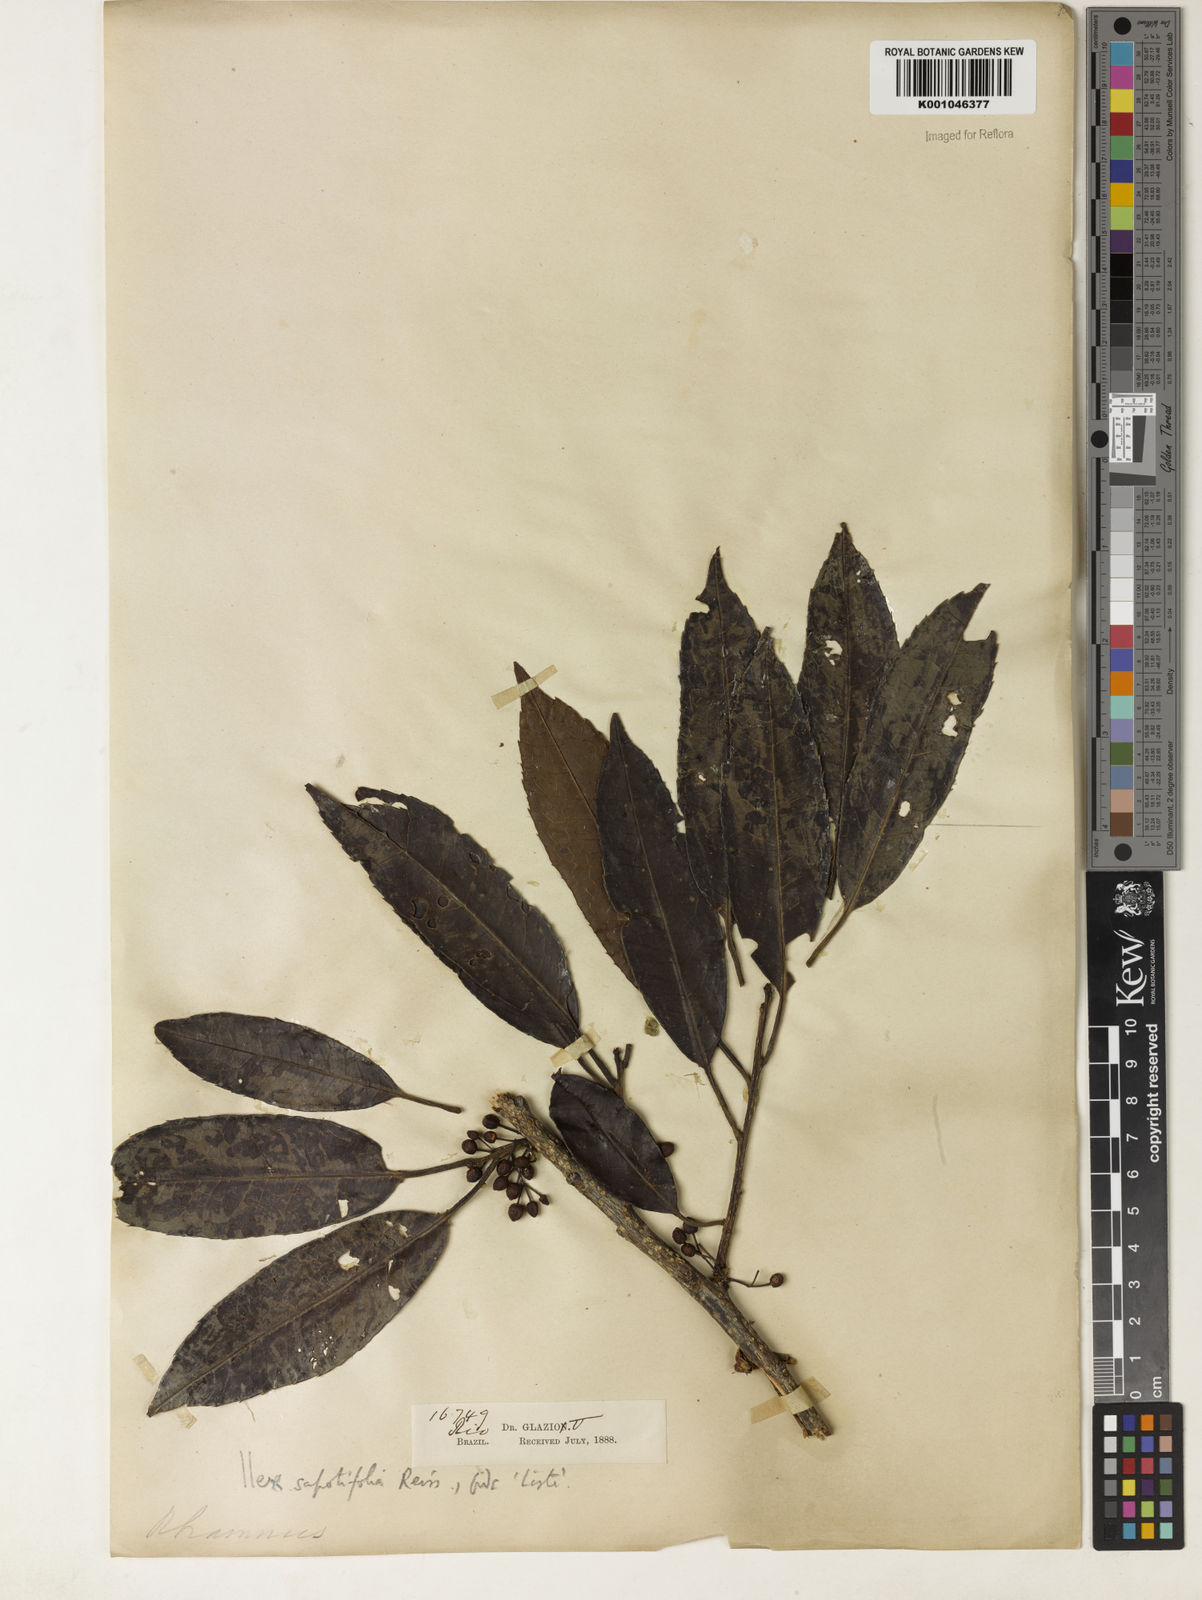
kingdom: Plantae
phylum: Tracheophyta
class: Magnoliopsida
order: Aquifoliales
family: Aquifoliaceae
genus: Ilex
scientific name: Ilex sapotifolia
